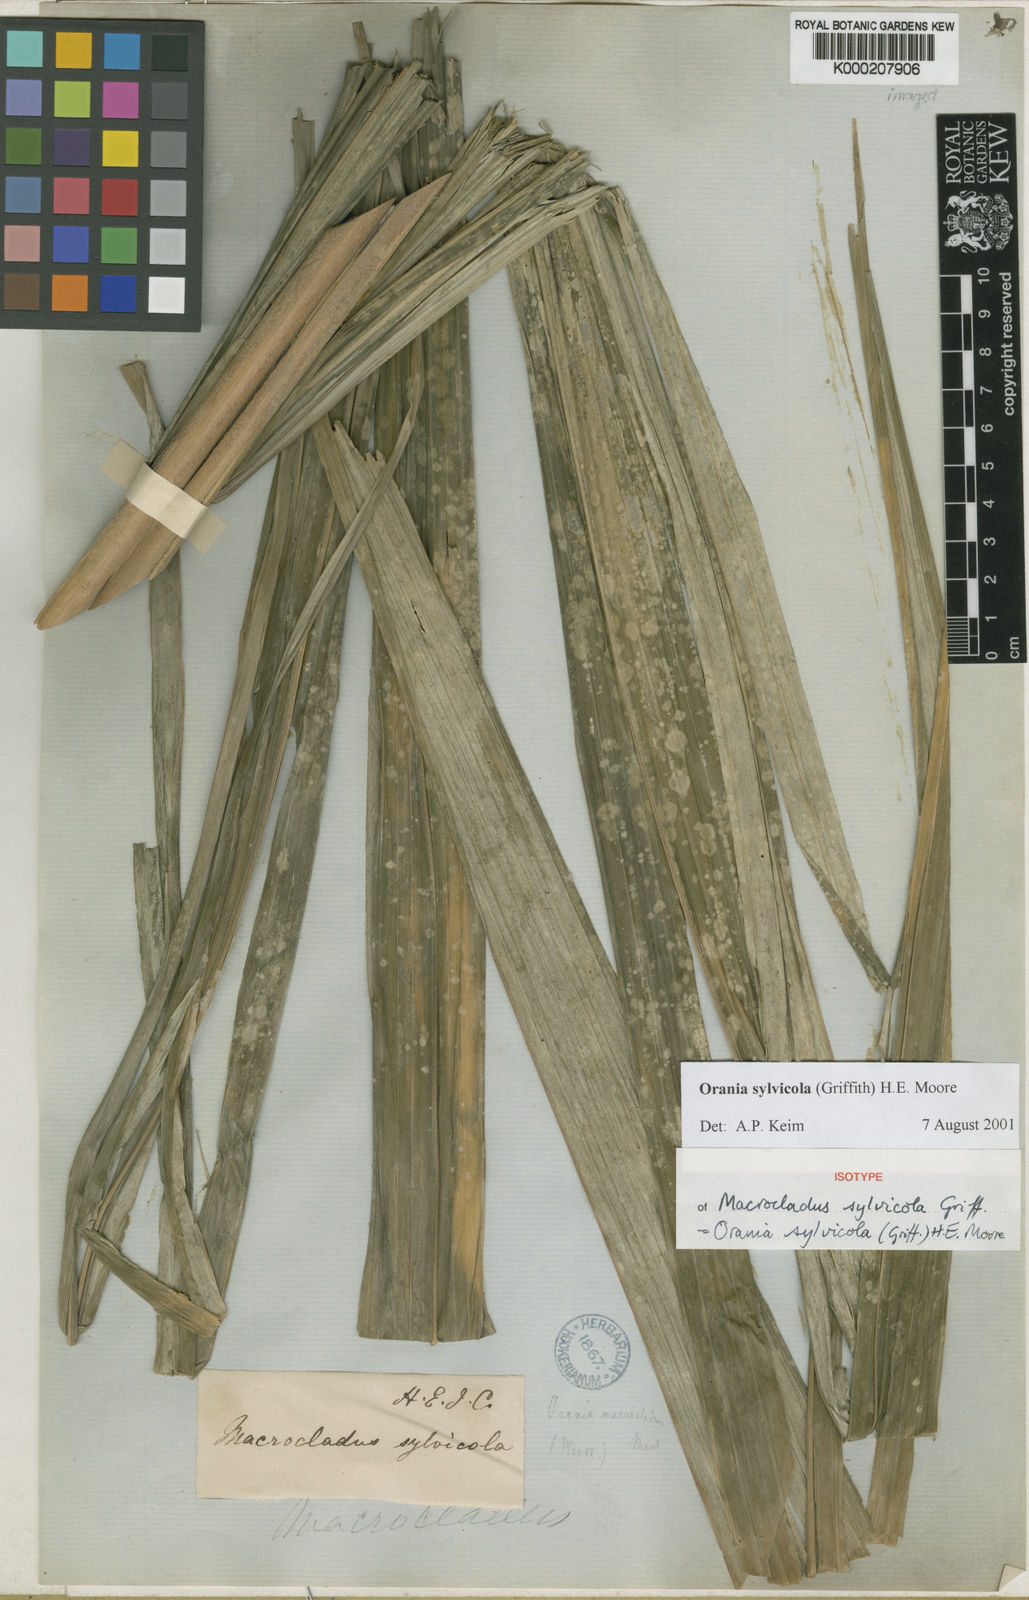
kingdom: Plantae
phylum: Tracheophyta
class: Liliopsida
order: Arecales
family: Arecaceae
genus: Orania
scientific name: Orania sylvicola
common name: Forest palm
